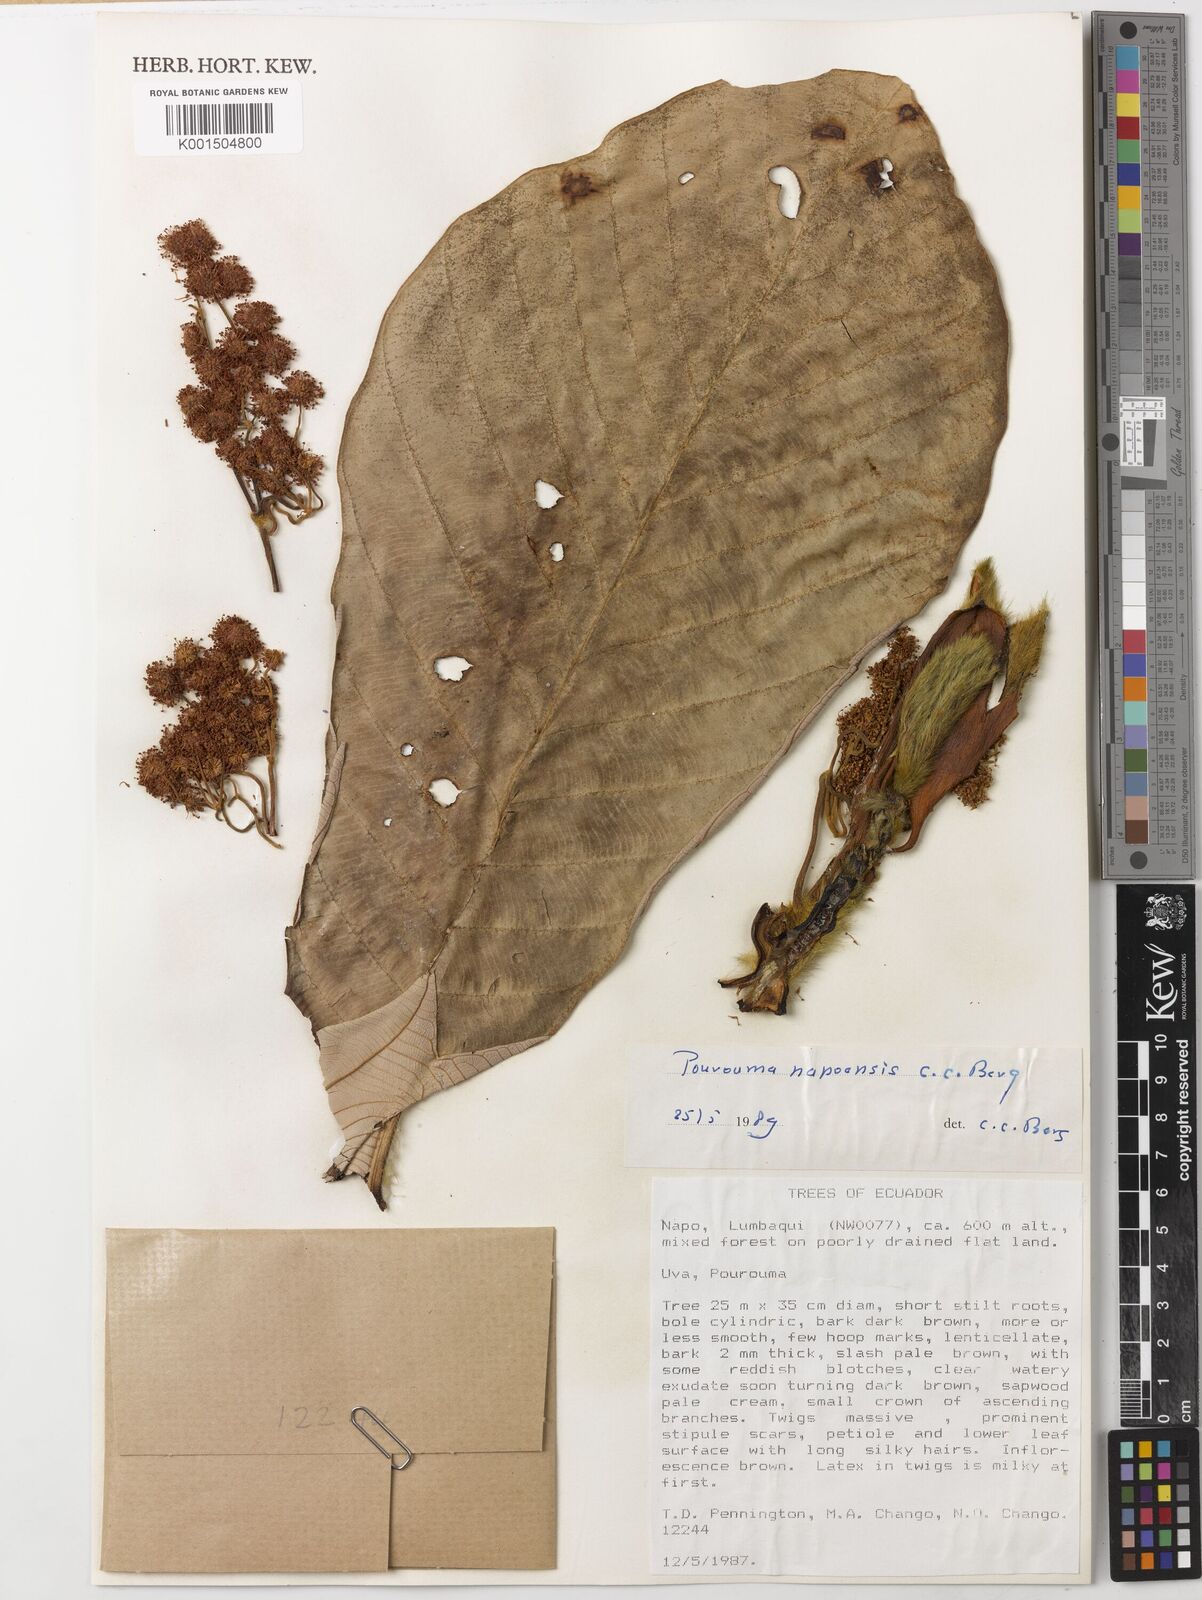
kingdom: Plantae
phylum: Tracheophyta
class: Magnoliopsida
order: Rosales
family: Urticaceae
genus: Pourouma
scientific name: Pourouma napoensis
